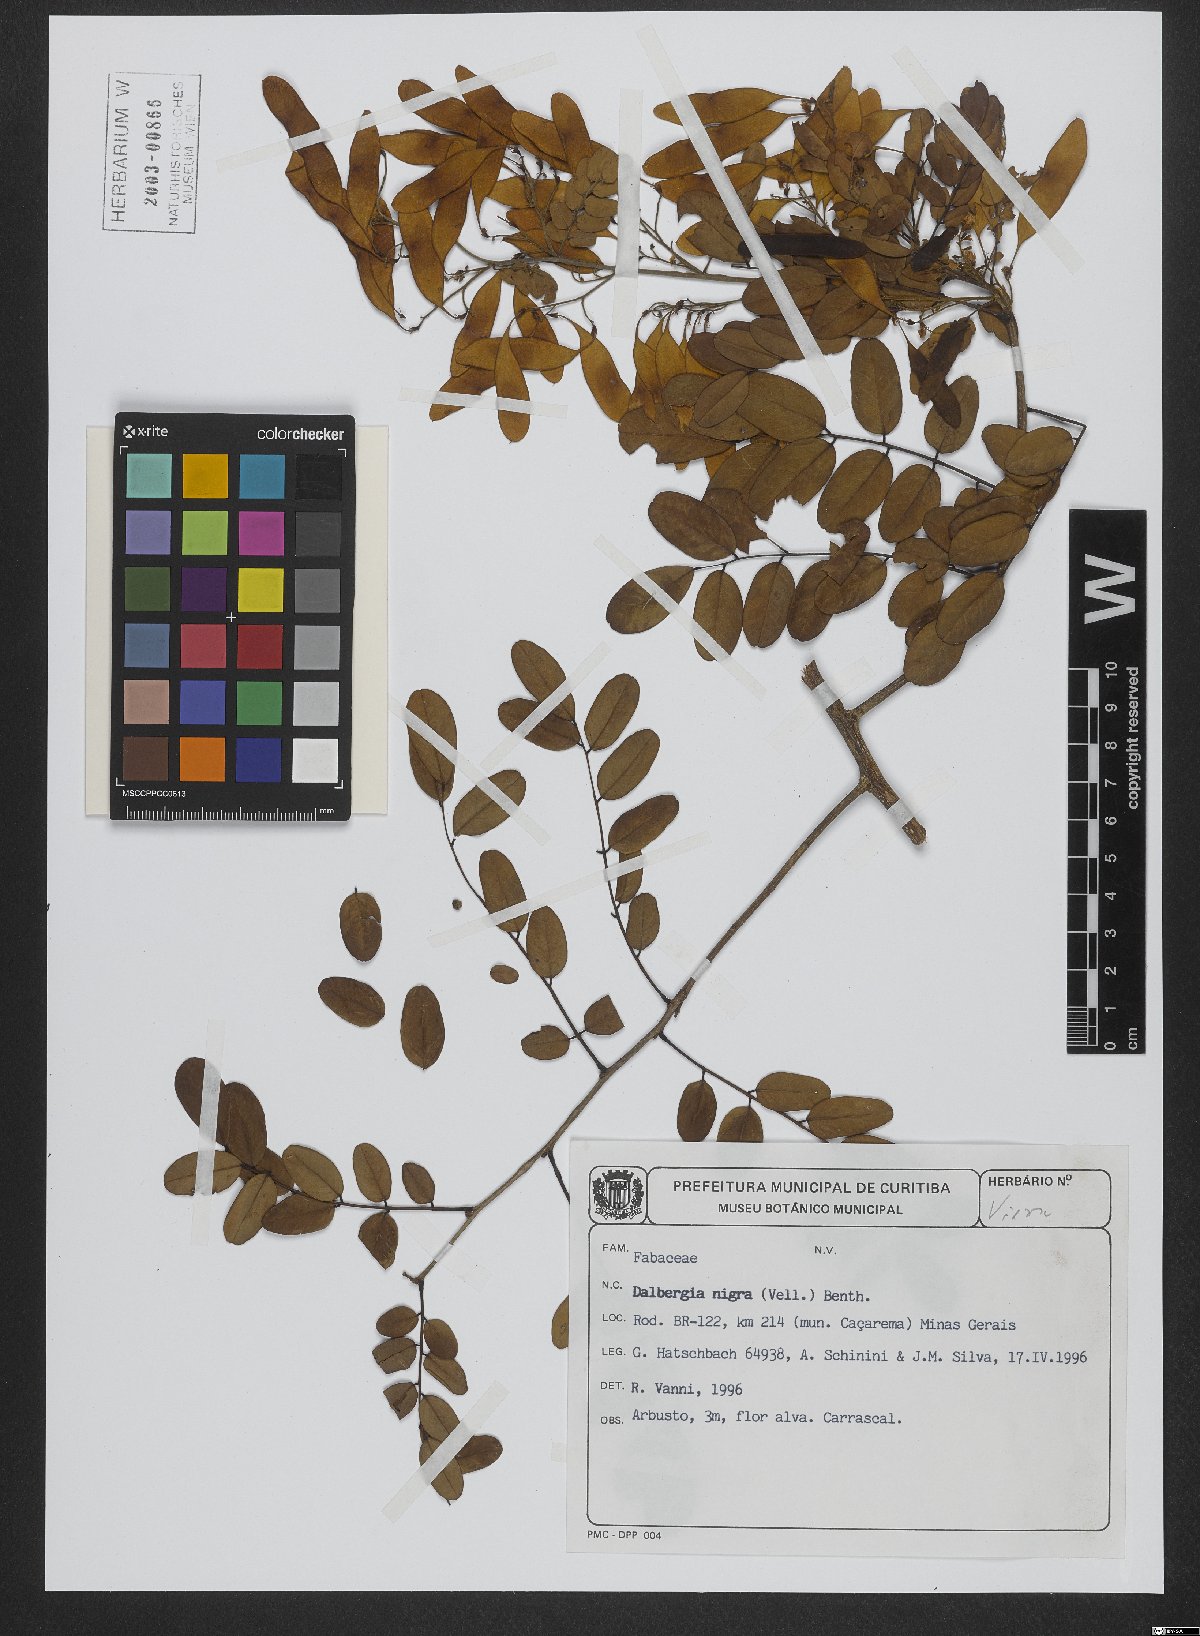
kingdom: Plantae
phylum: Tracheophyta
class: Magnoliopsida
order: Fabales
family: Fabaceae
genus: Dalbergia
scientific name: Dalbergia nigra
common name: Bahia rosewood
